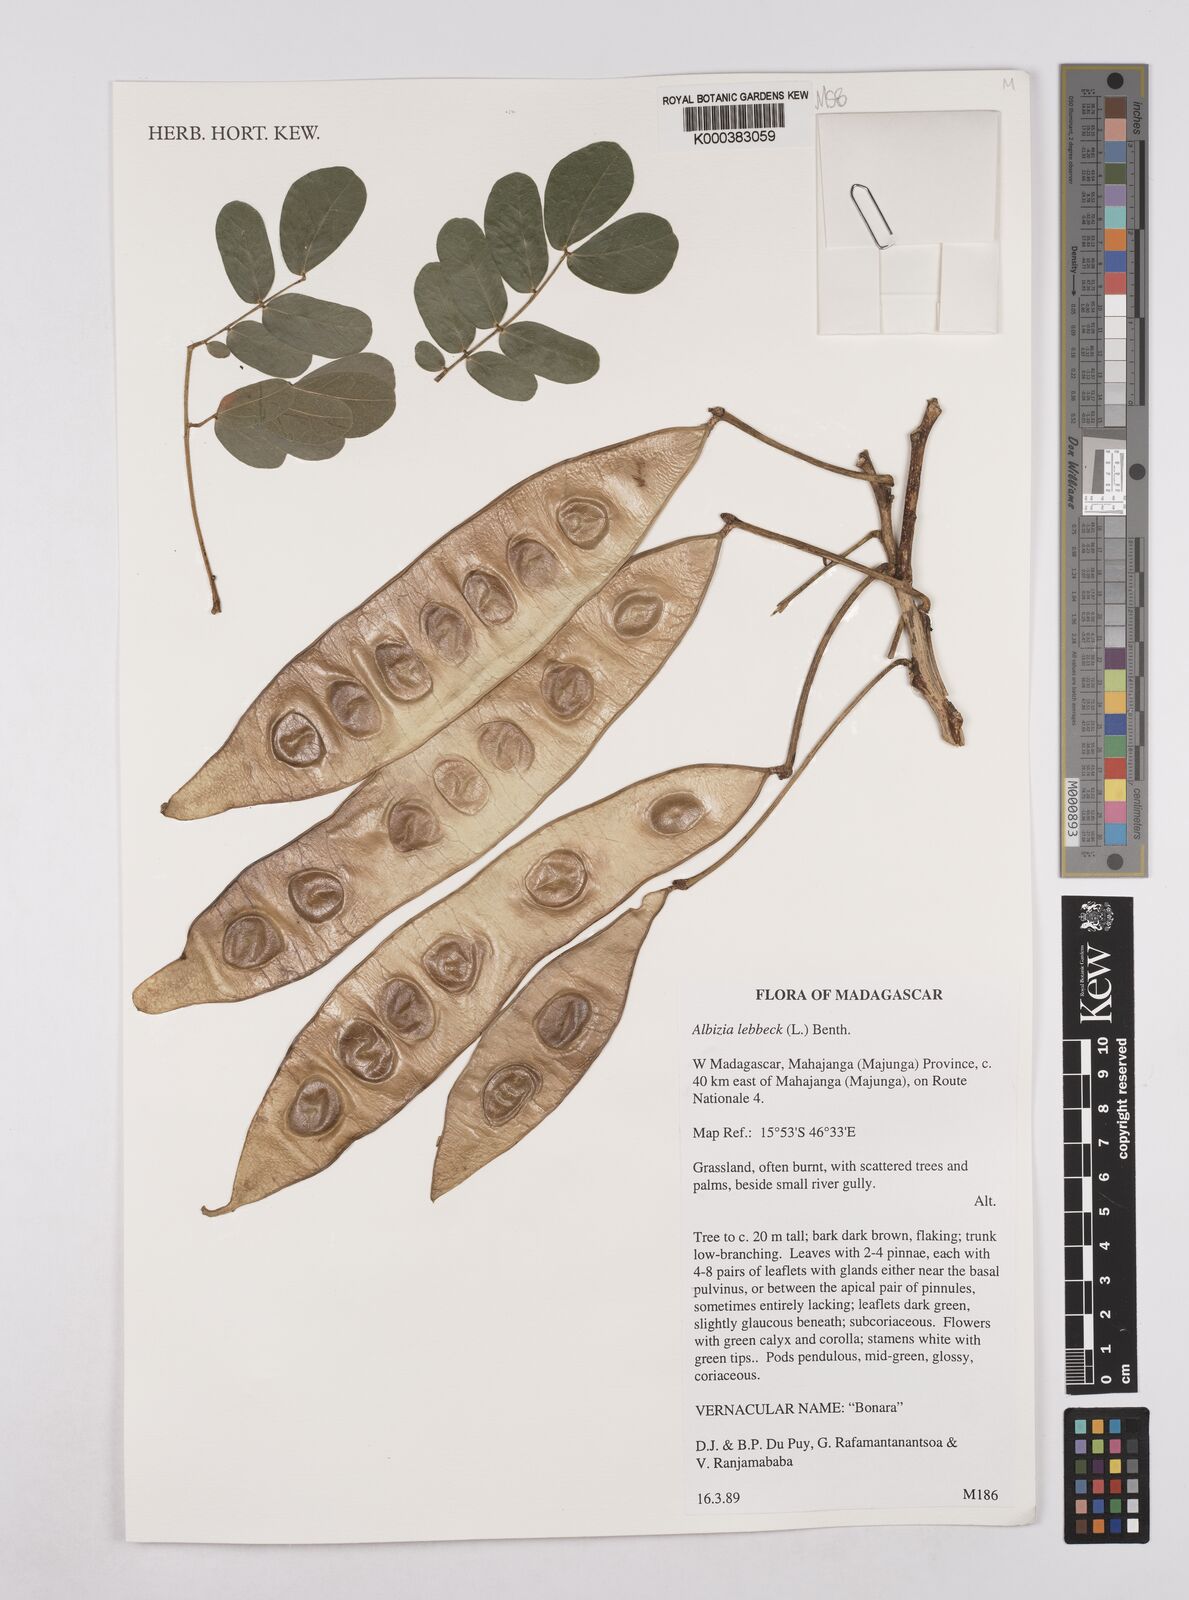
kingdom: Plantae
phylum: Tracheophyta
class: Magnoliopsida
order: Fabales
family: Fabaceae
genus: Albizia
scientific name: Albizia lebbeck
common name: Woman's tongue
